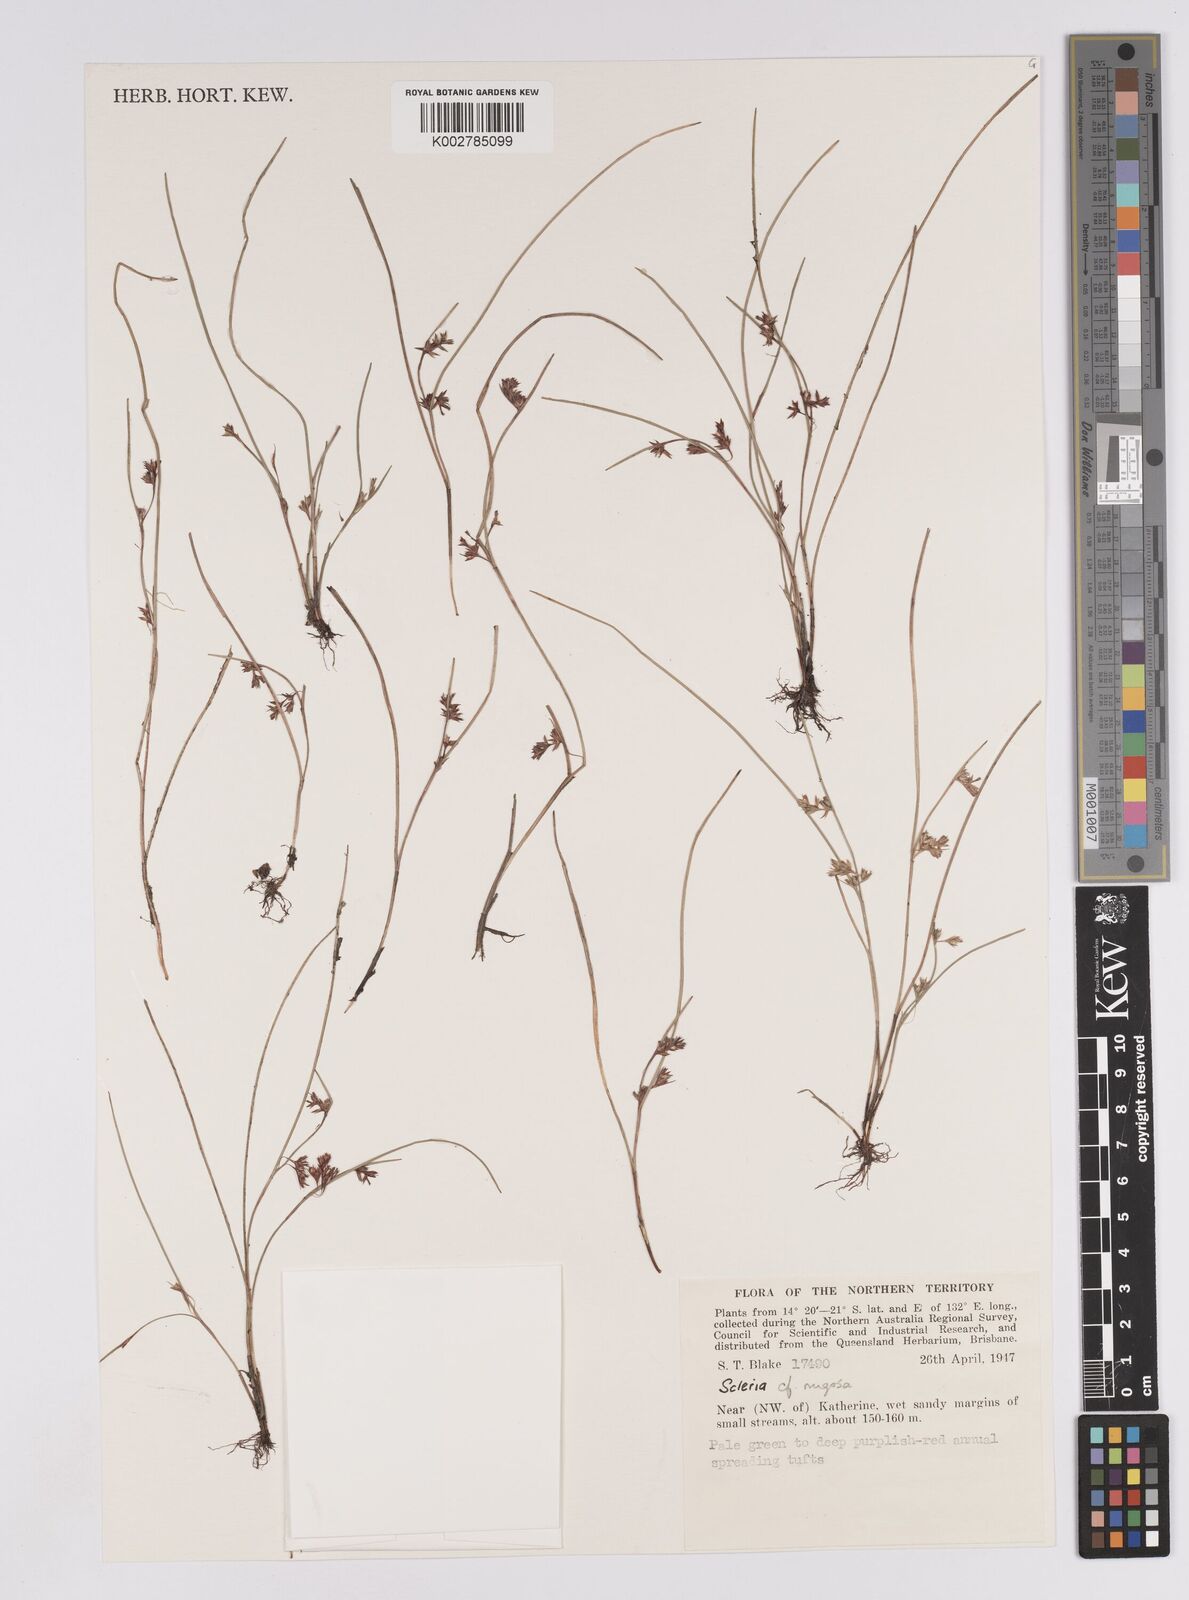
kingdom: Plantae
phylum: Tracheophyta
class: Liliopsida
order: Poales
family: Cyperaceae
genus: Scleria
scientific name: Scleria rugosa
